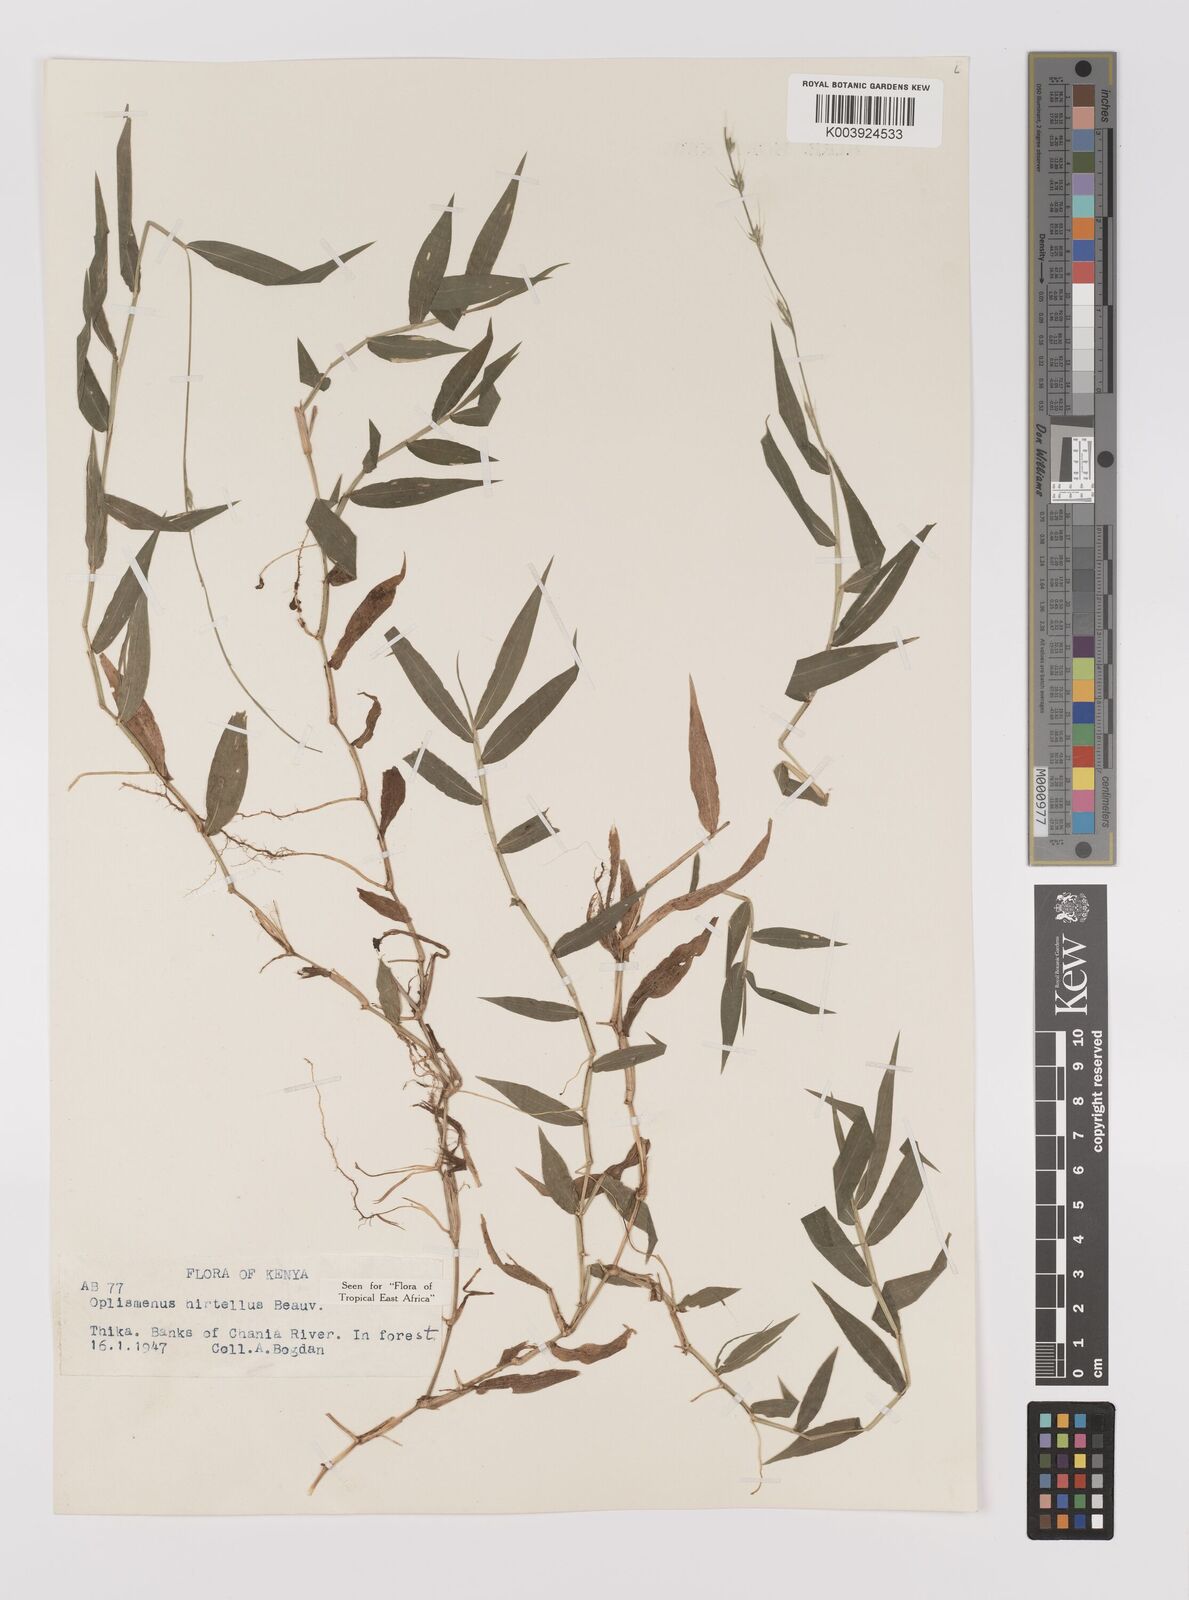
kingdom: Plantae
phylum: Tracheophyta
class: Liliopsida
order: Poales
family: Poaceae
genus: Oplismenus
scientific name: Oplismenus hirtellus
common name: Basketgrass
